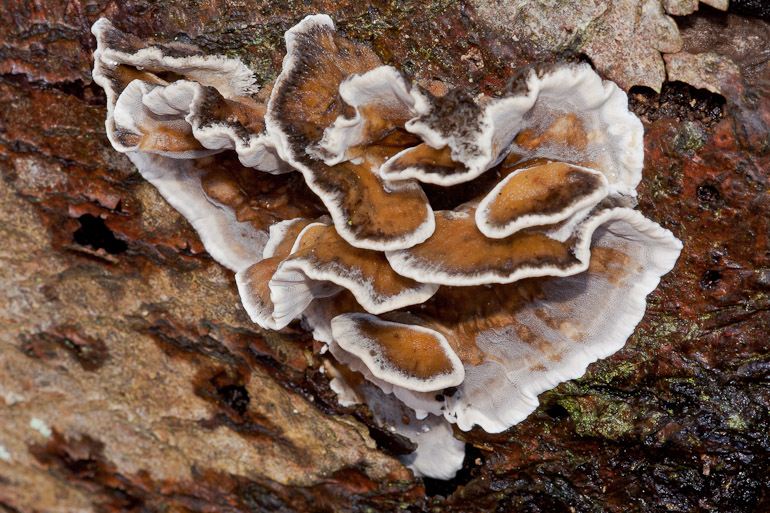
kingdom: Fungi
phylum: Basidiomycota
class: Agaricomycetes
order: Polyporales
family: Phanerochaetaceae
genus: Bjerkandera
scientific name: Bjerkandera adusta
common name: sveden sodporesvamp
